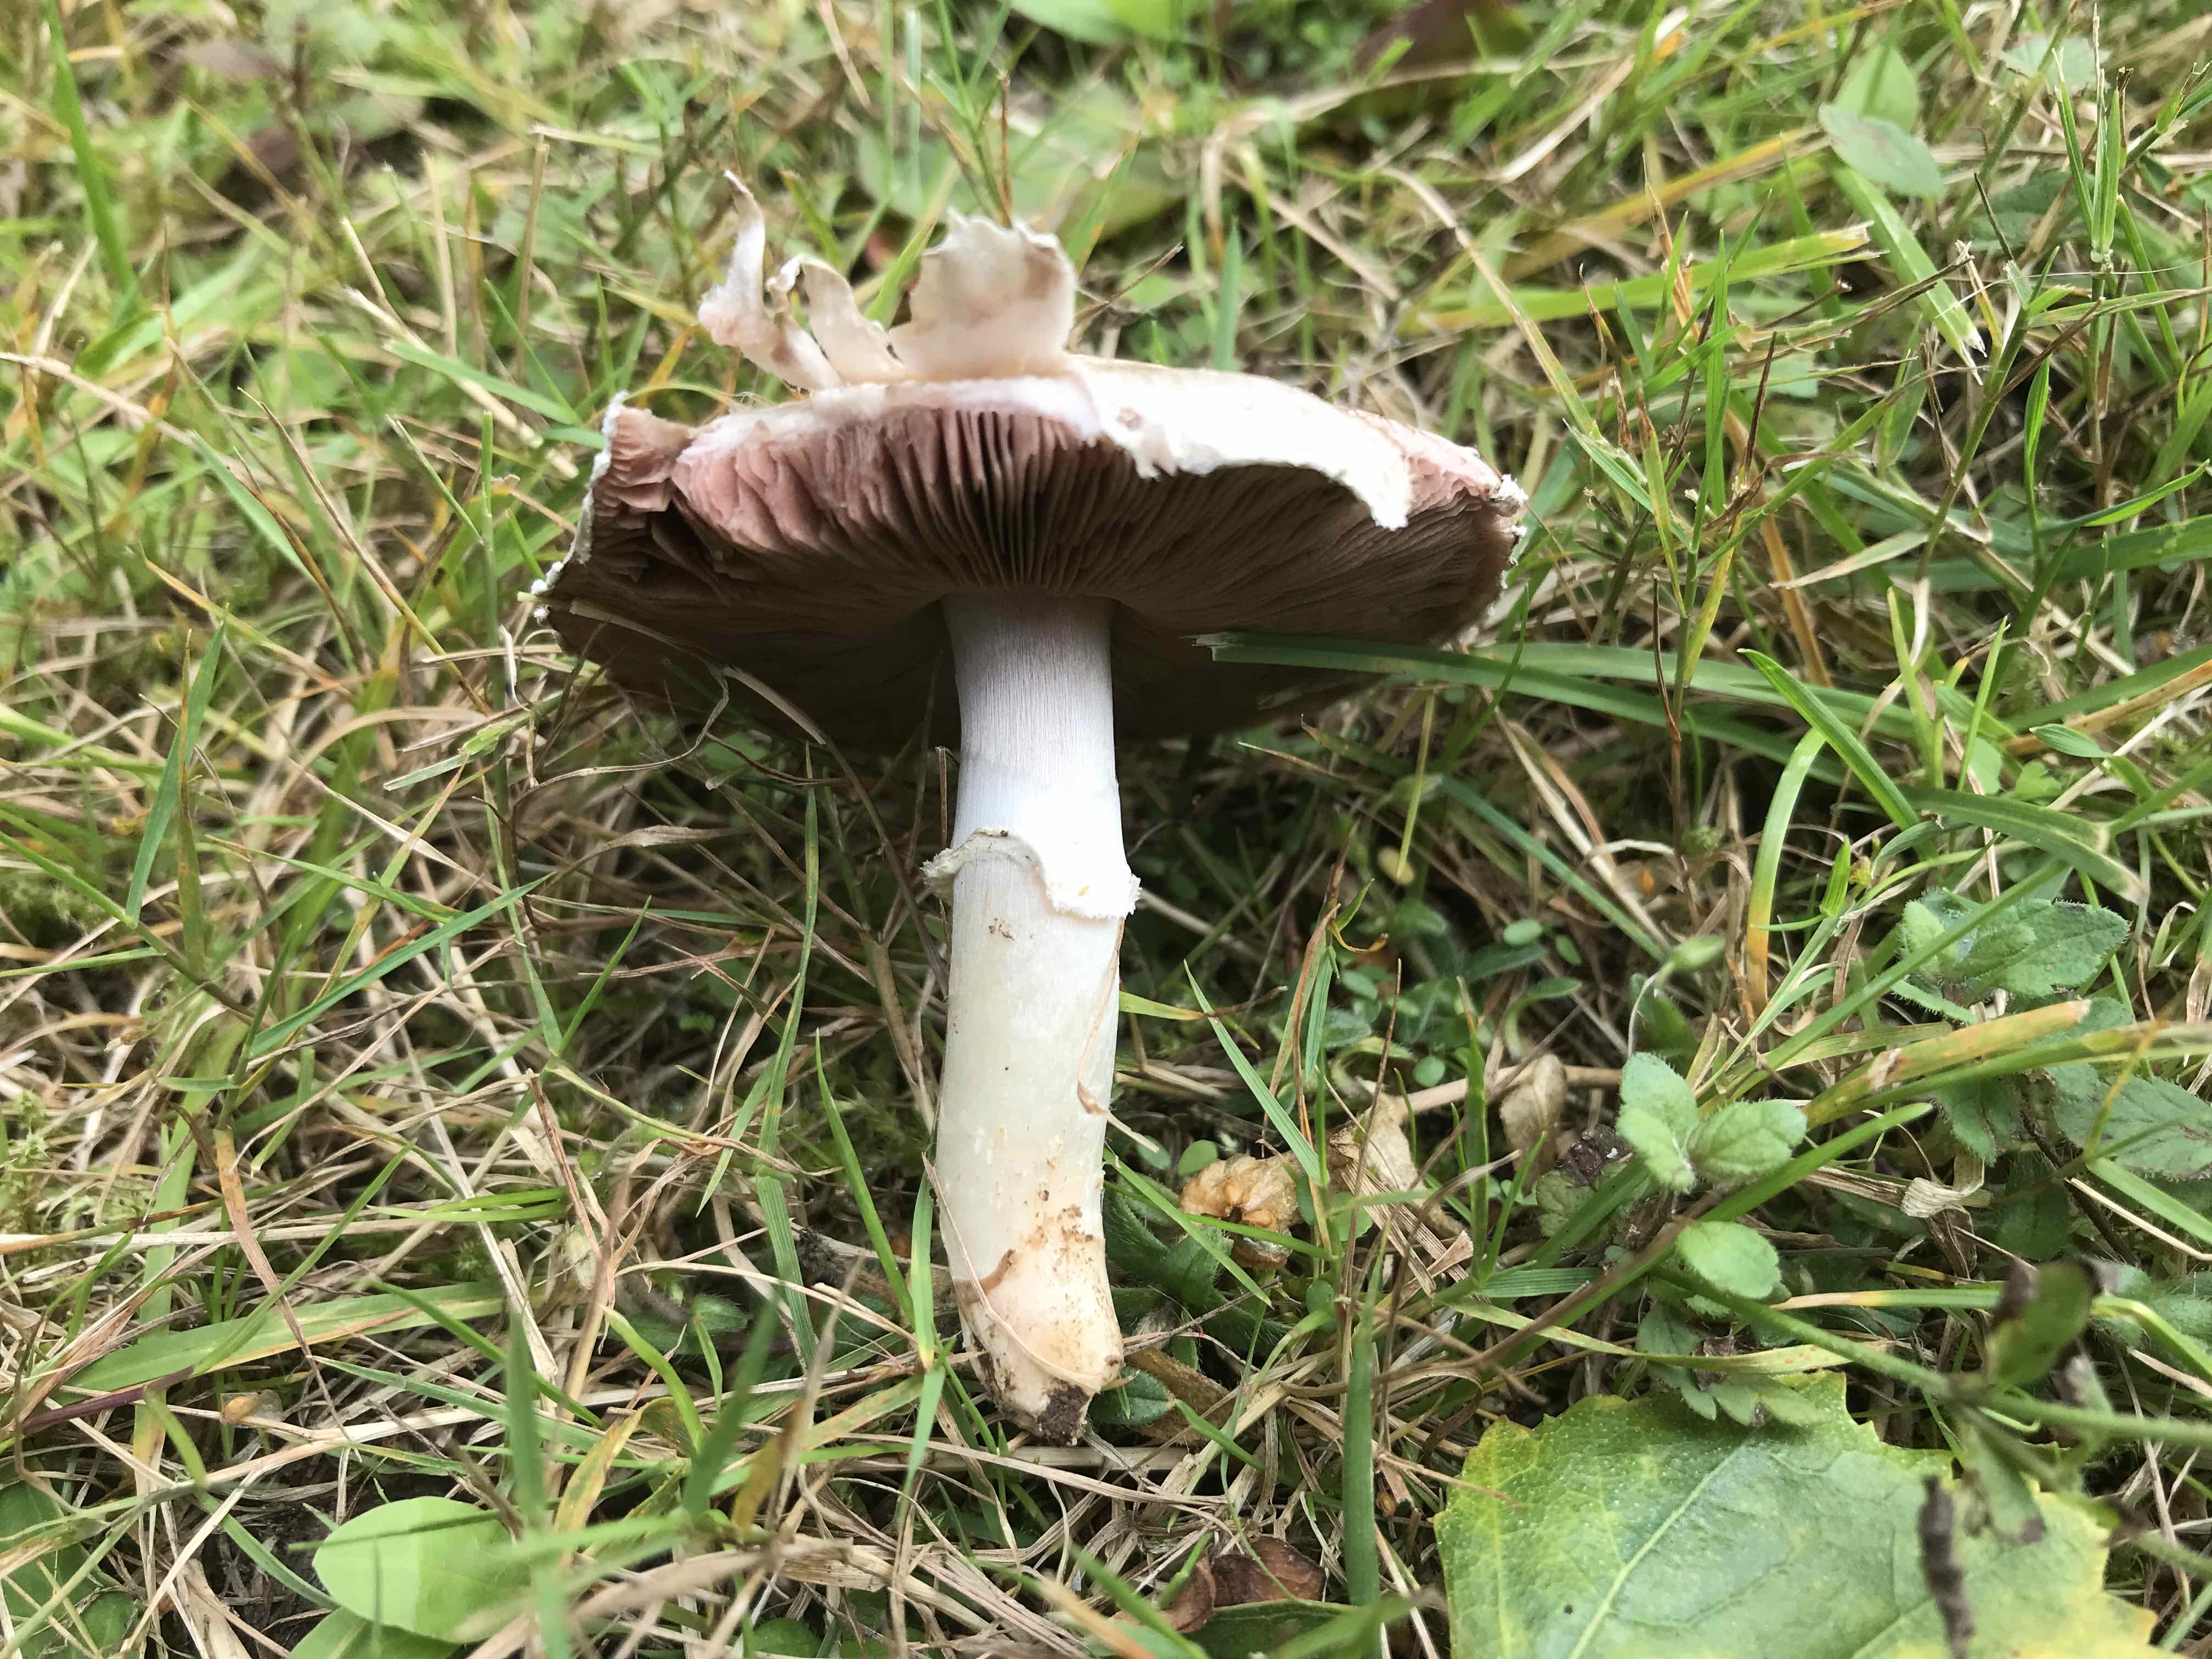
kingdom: Fungi
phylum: Basidiomycota
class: Agaricomycetes
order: Agaricales
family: Agaricaceae
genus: Agaricus
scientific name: Agaricus campestris
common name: mark-champignon
